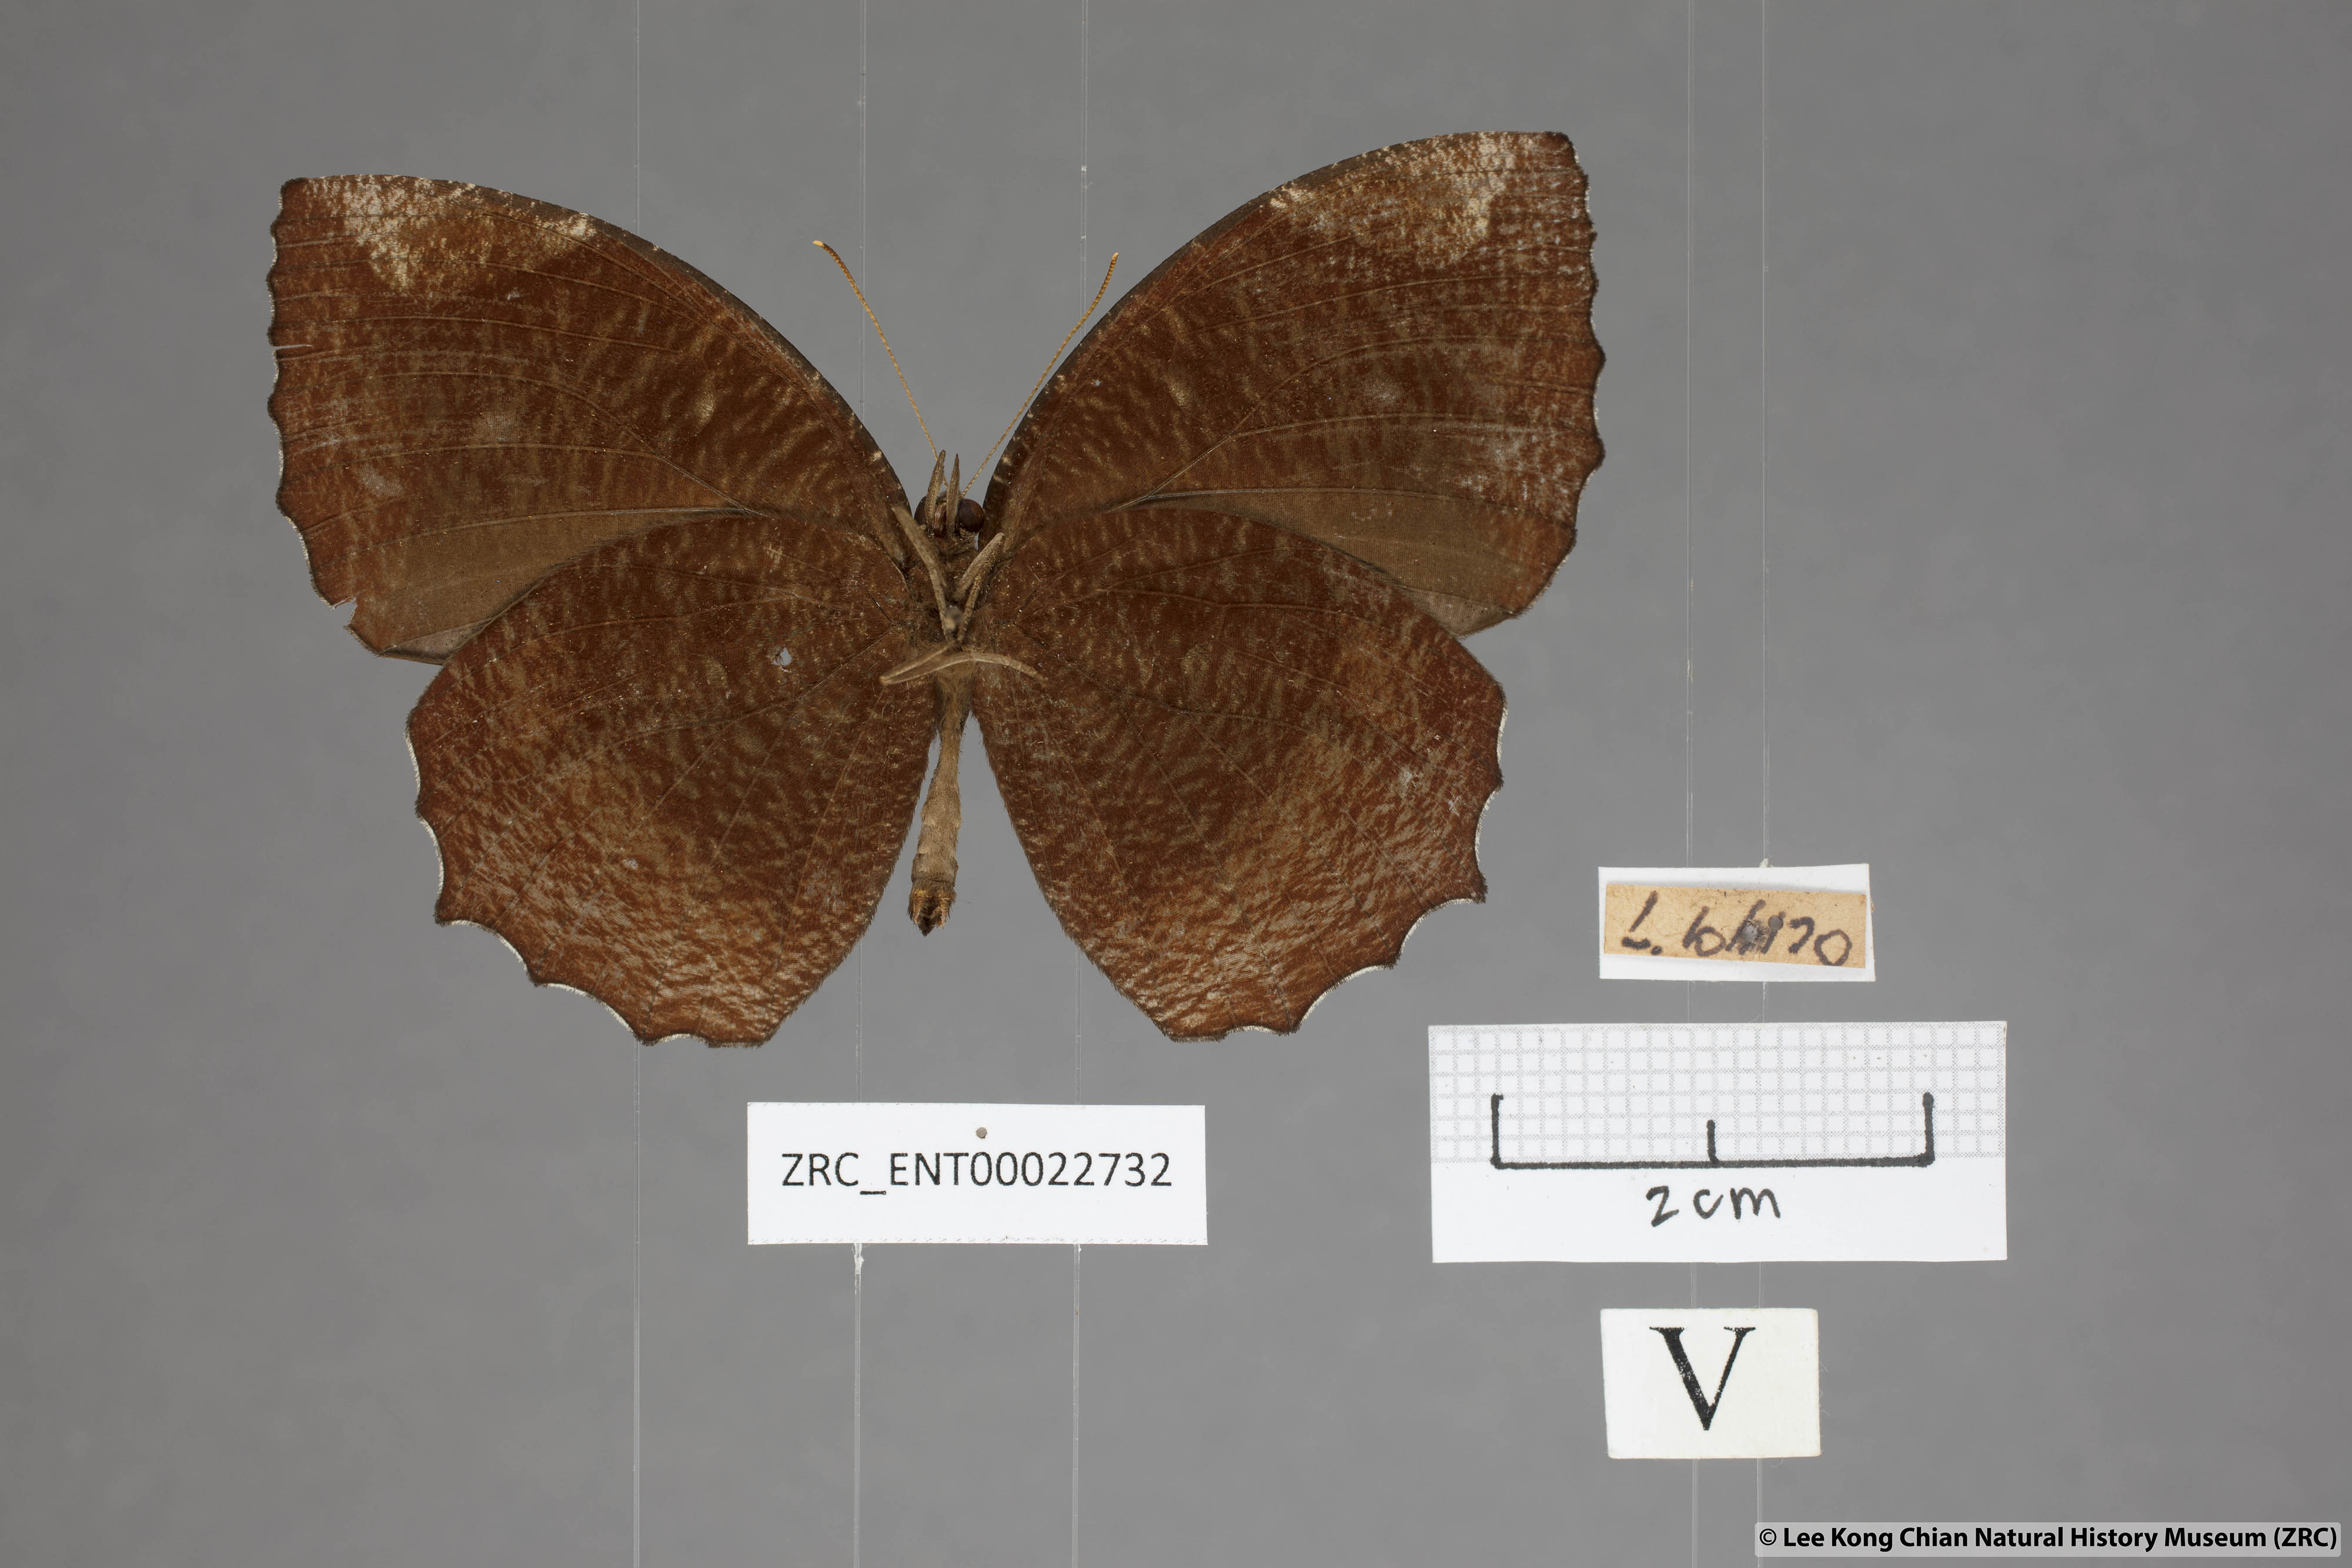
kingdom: Animalia
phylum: Arthropoda
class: Insecta
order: Lepidoptera
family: Nymphalidae
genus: Elymnias
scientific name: Elymnias hypermnestra
